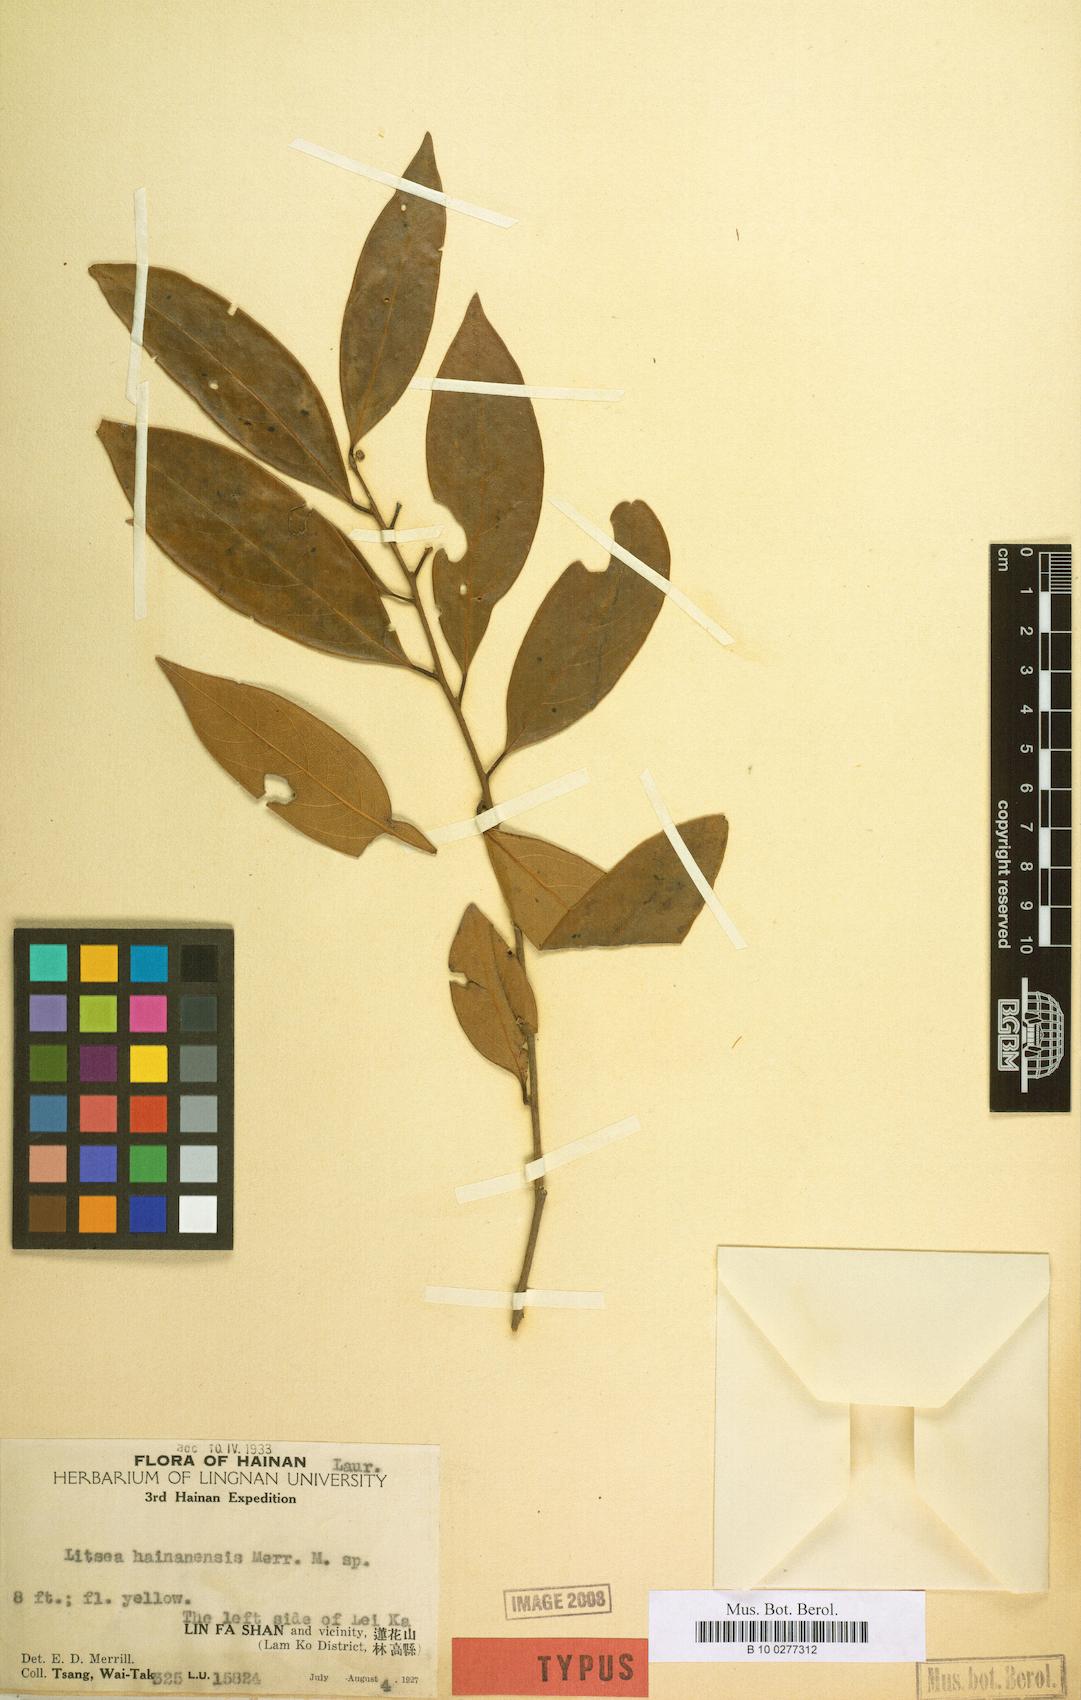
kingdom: Plantae
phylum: Tracheophyta
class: Magnoliopsida
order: Laurales
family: Lauraceae
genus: Litsea
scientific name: Litsea
